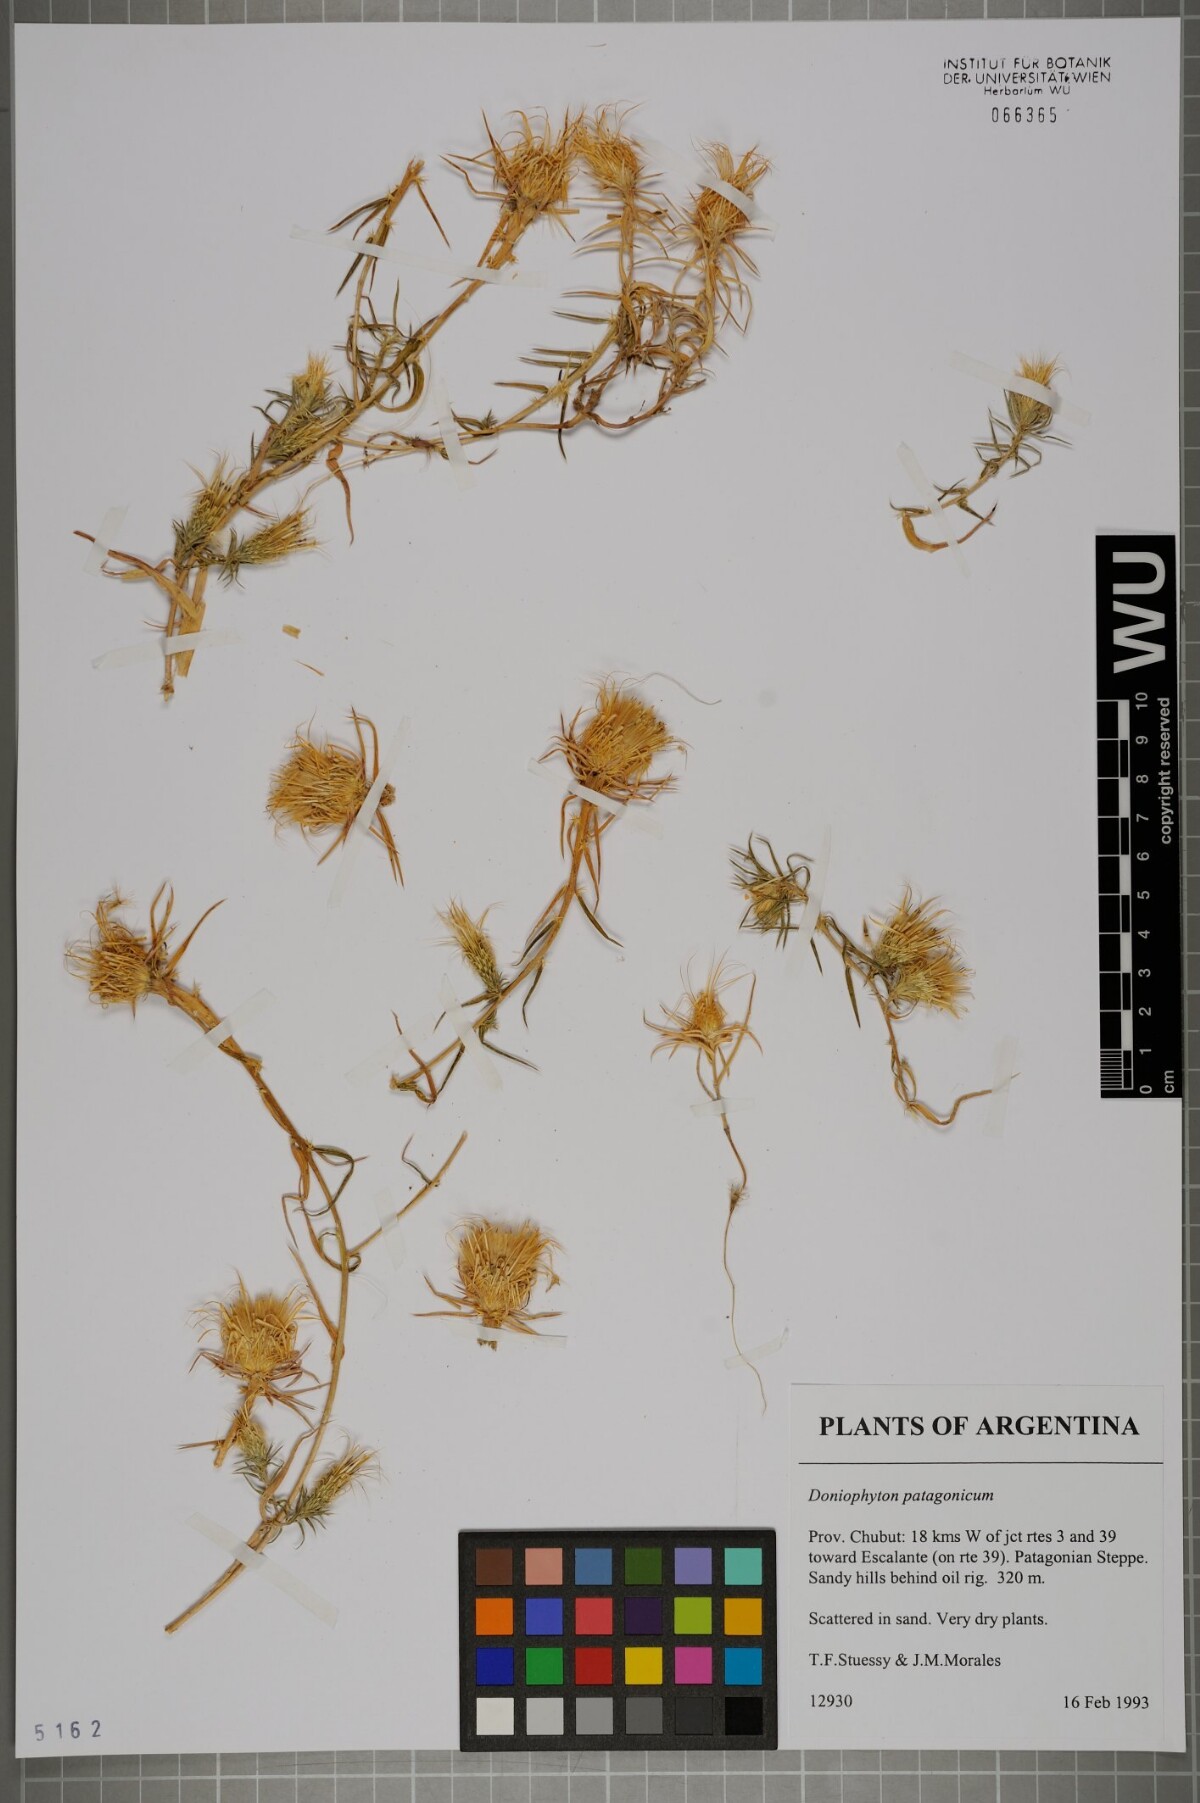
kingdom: Plantae
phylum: Tracheophyta
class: Magnoliopsida
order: Asterales
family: Asteraceae
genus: Doniophyton
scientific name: Doniophyton anomalum
